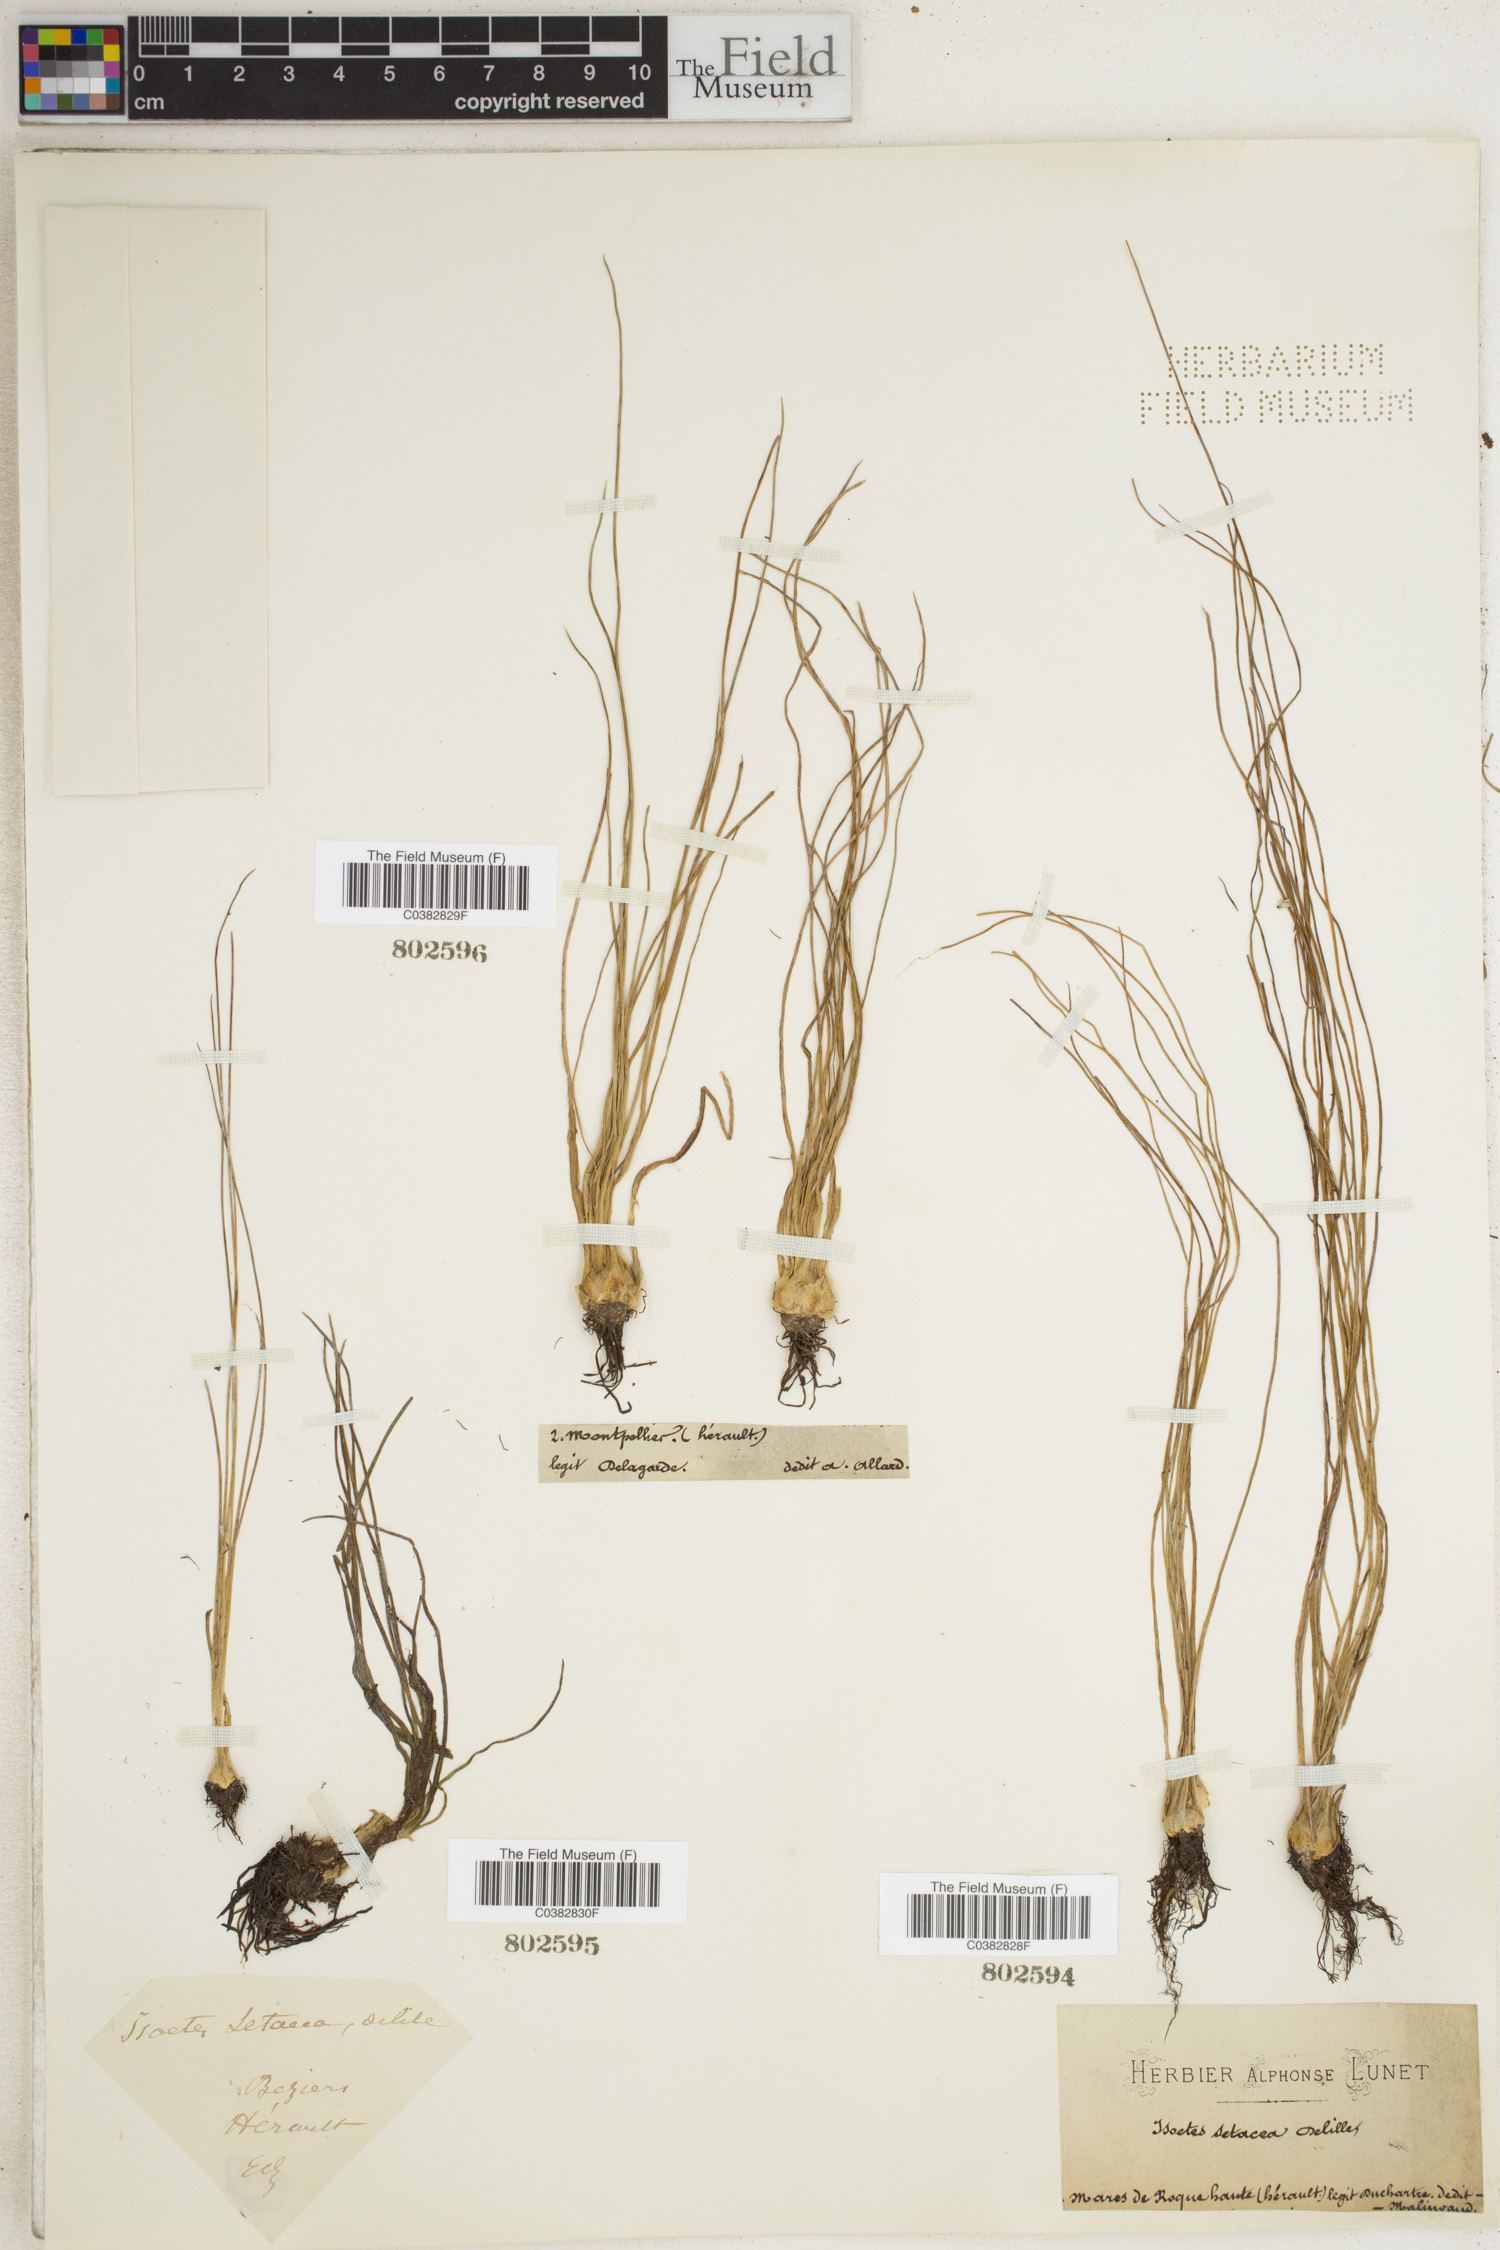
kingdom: Plantae
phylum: Tracheophyta
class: Lycopodiopsida
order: Isoetales
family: Isoetaceae
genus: Isoetes
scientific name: Isoetes lacustris
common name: Common quillwort
